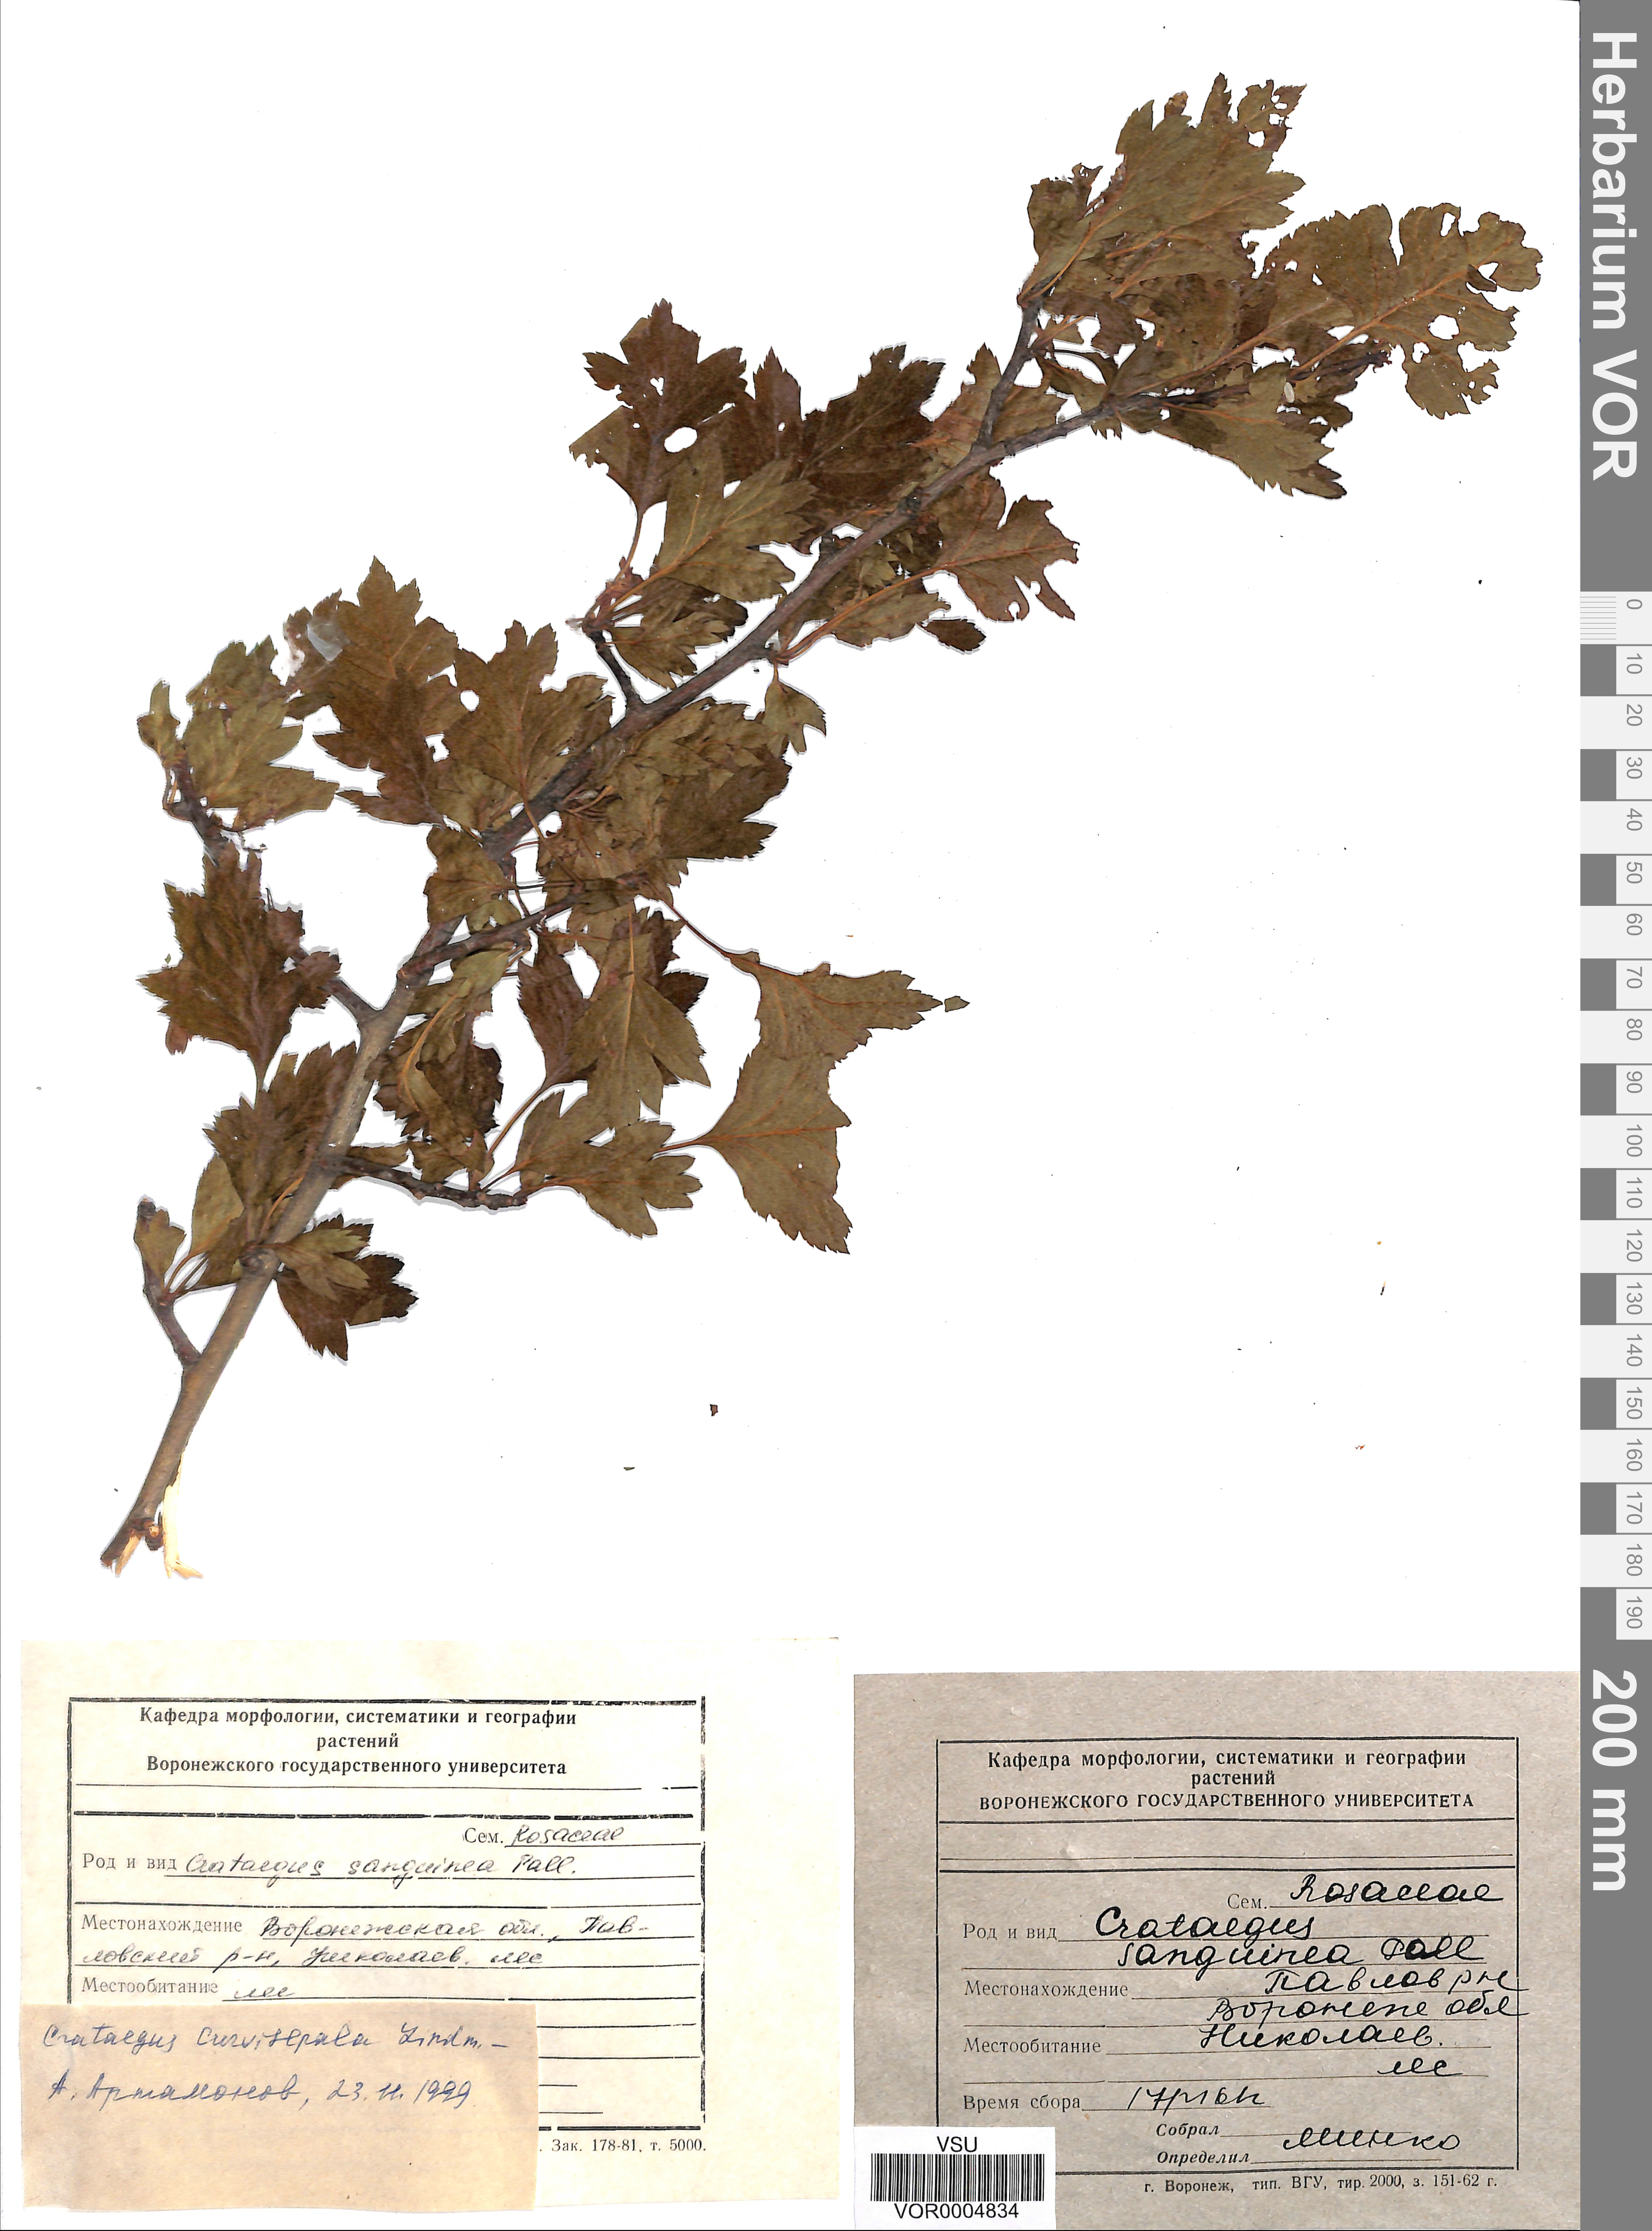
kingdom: Plantae
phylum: Tracheophyta
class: Magnoliopsida
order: Rosales
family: Rosaceae
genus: Crataegus
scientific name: Crataegus praemonticola
